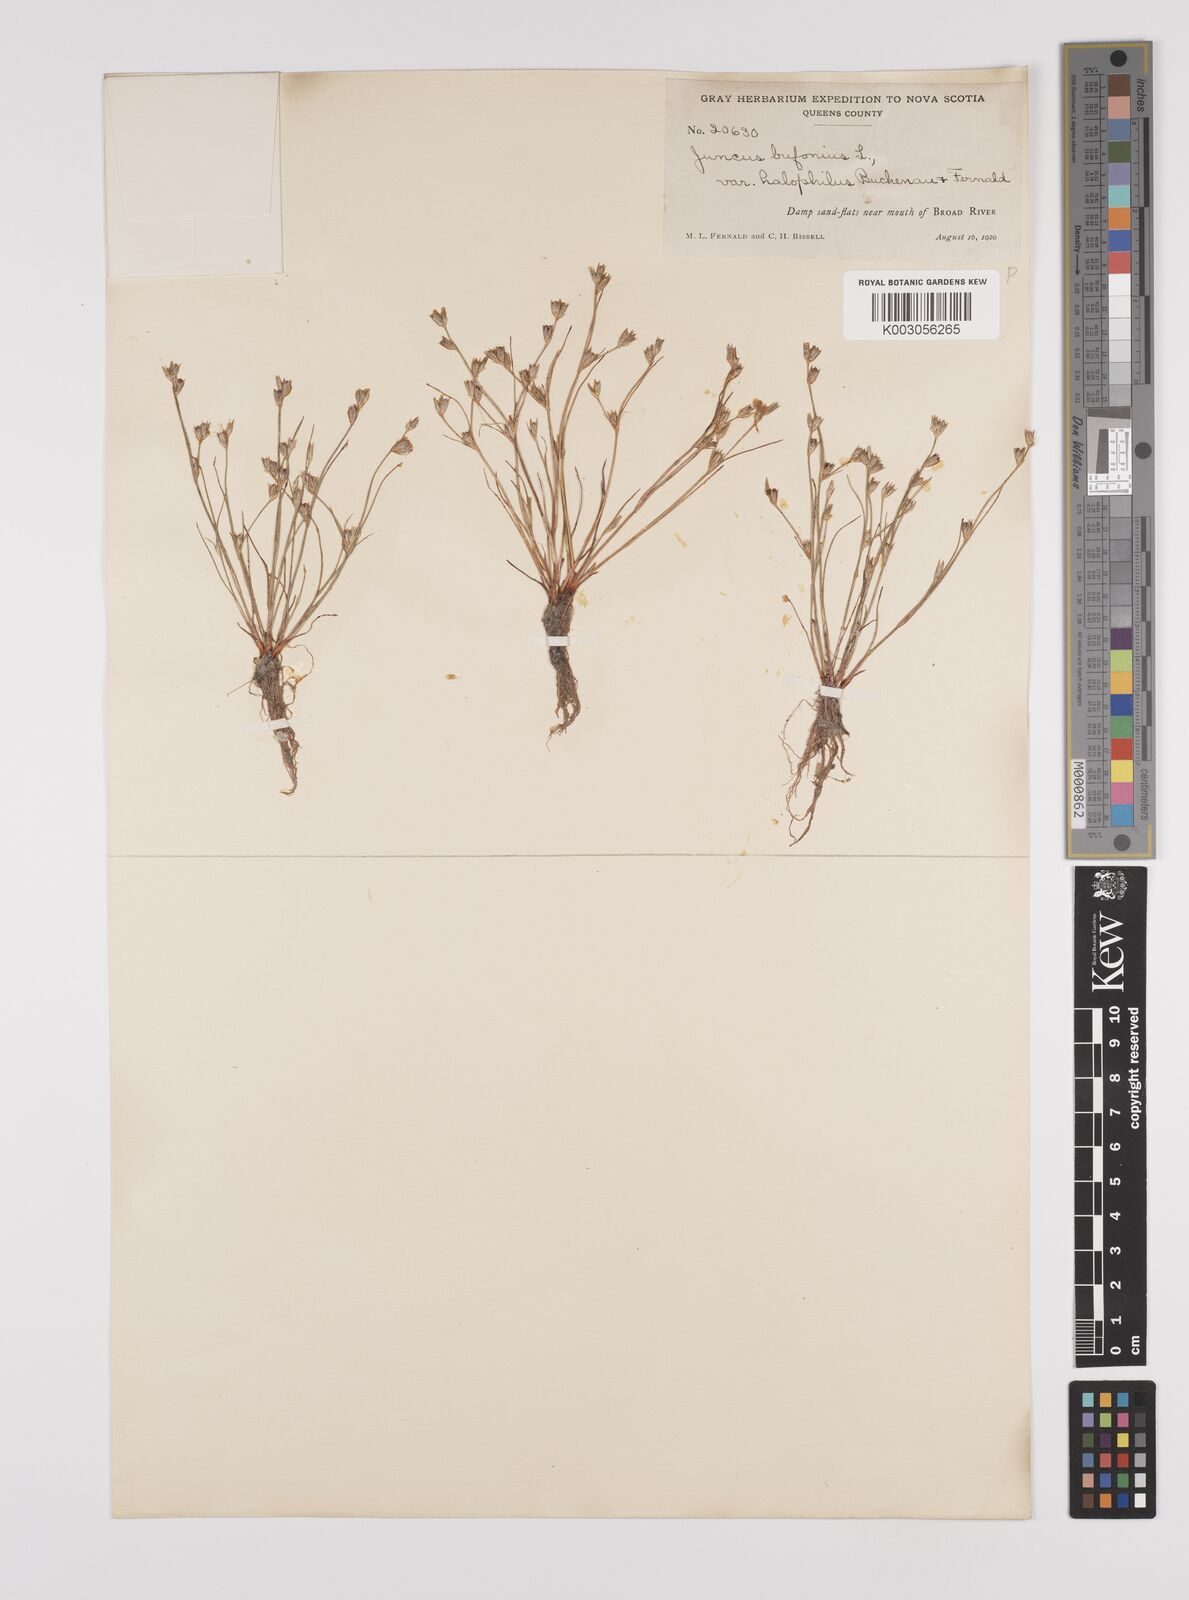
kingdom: Plantae
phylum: Tracheophyta
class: Liliopsida
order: Poales
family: Juncaceae
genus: Juncus
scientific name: Juncus ranarius
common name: Frog rush
